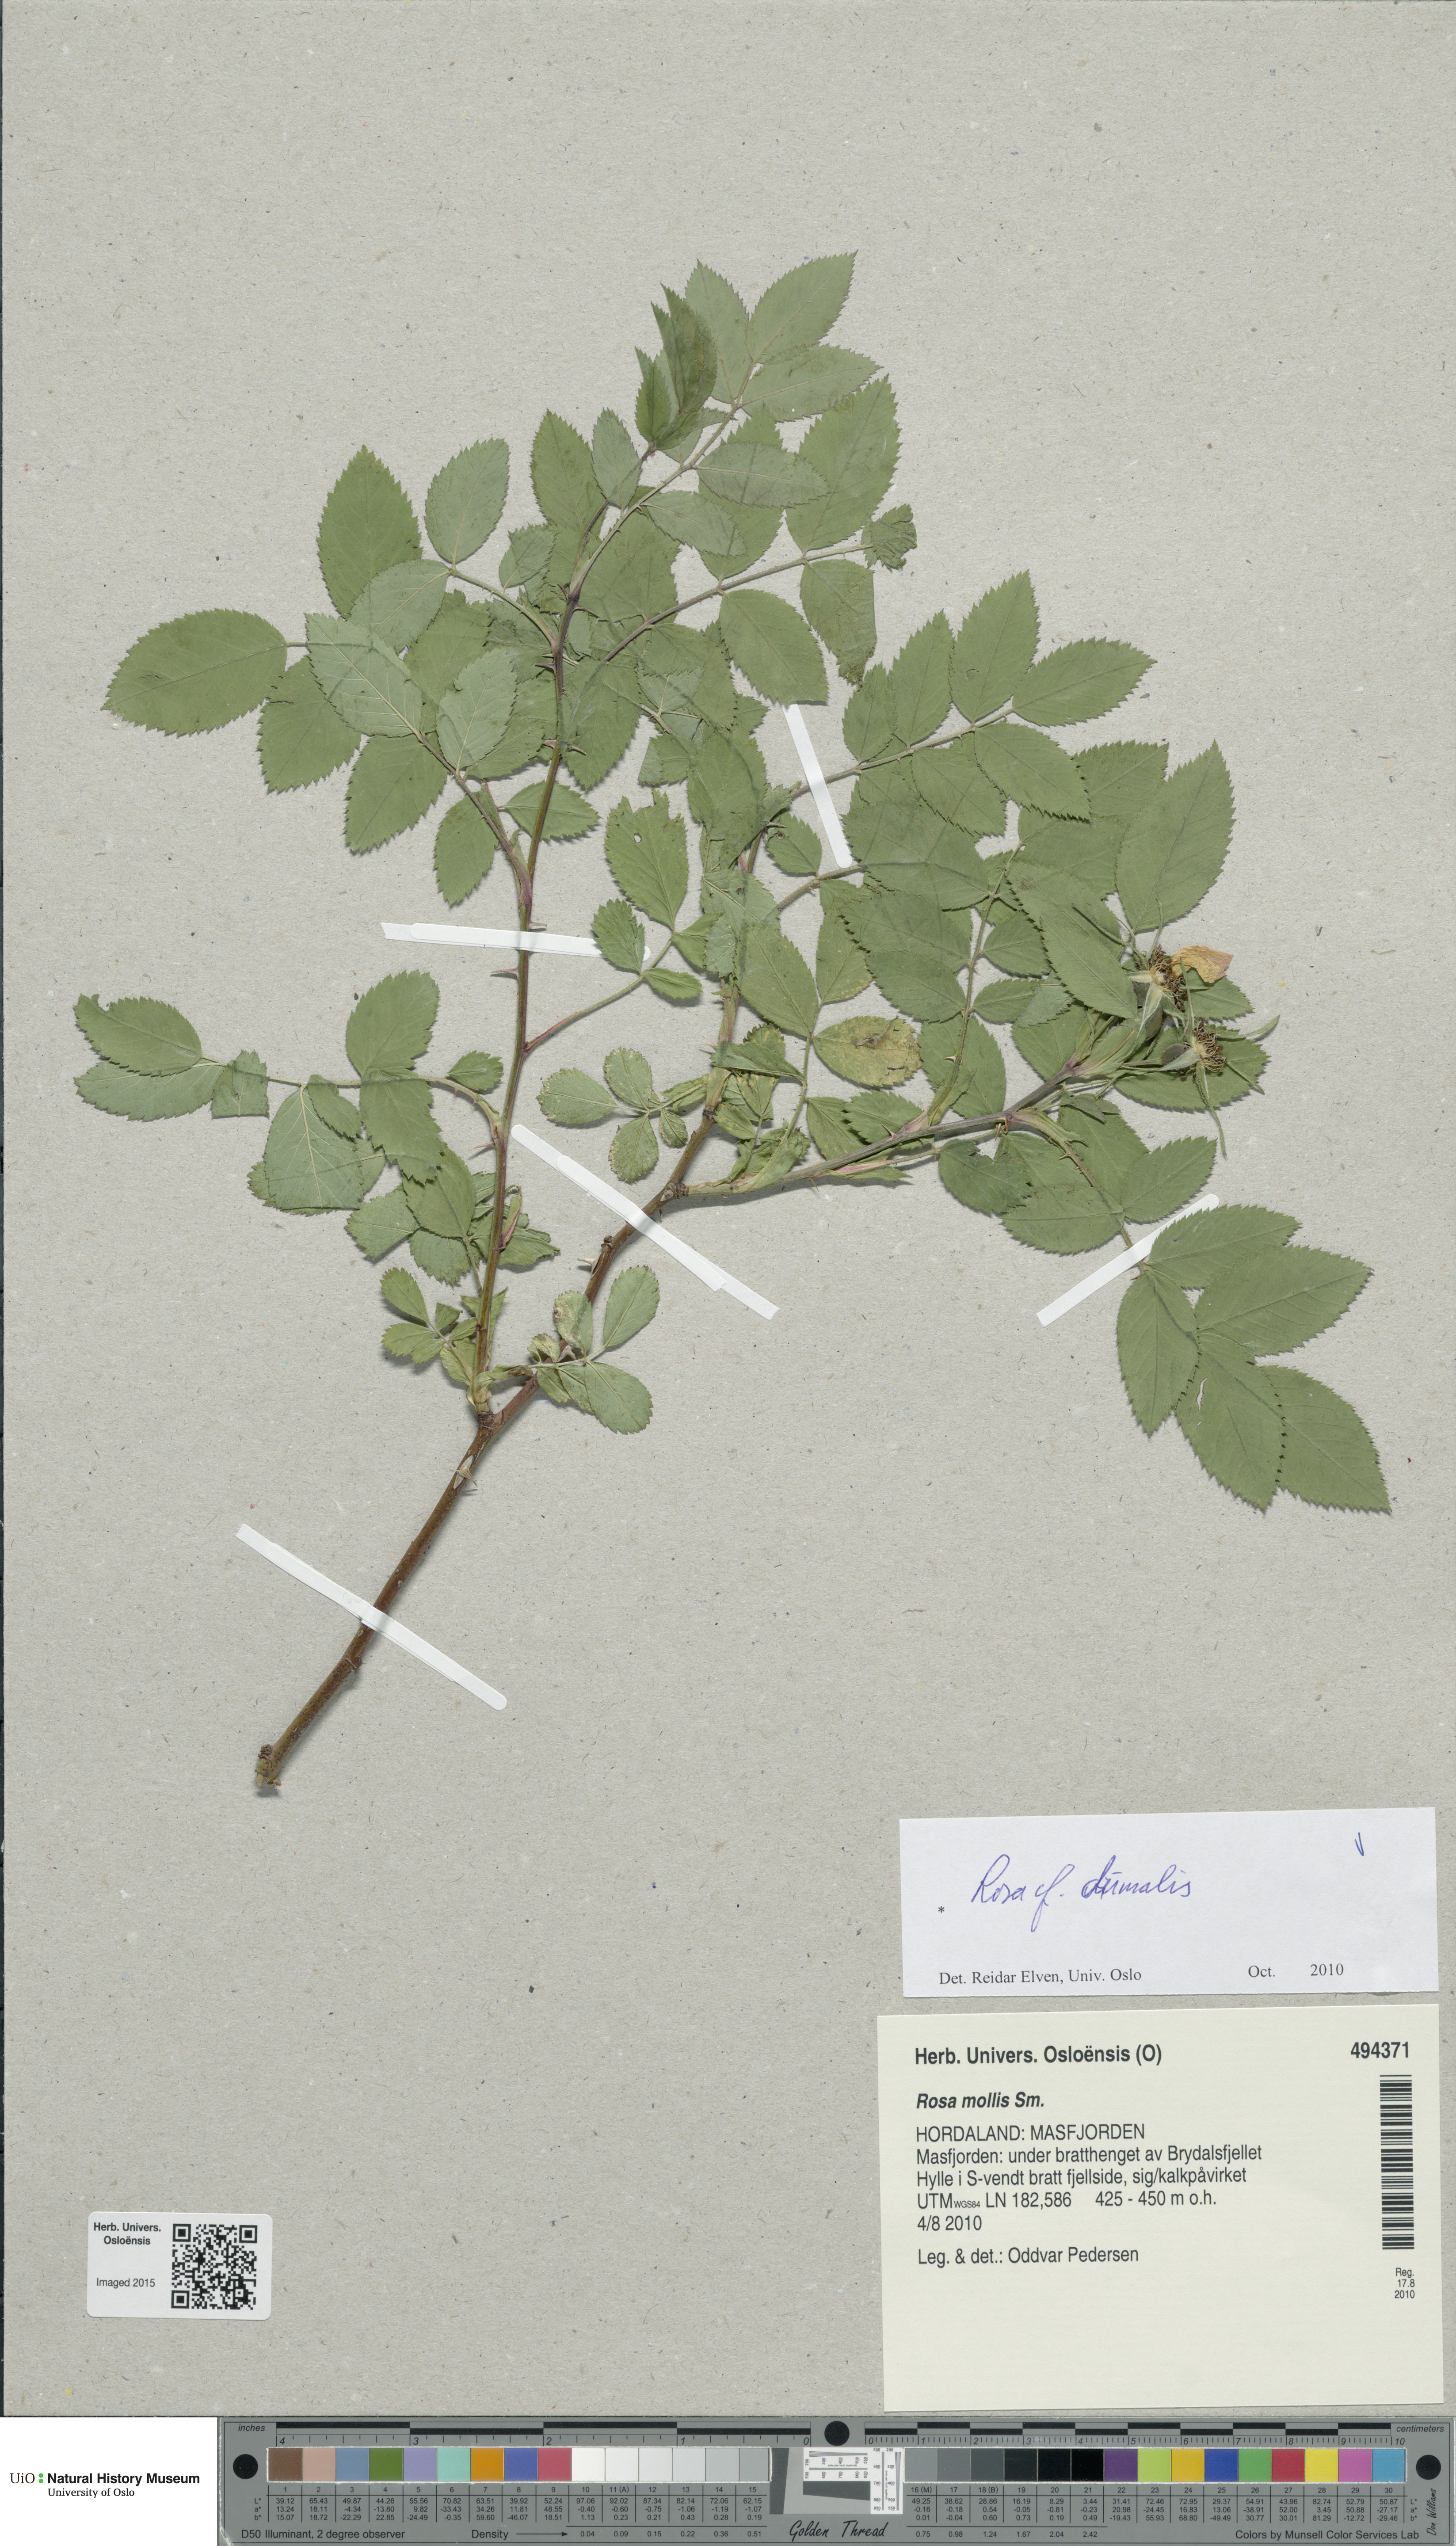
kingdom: Plantae
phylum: Tracheophyta
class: Magnoliopsida
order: Rosales
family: Rosaceae
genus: Rosa
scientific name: Rosa dumalis
